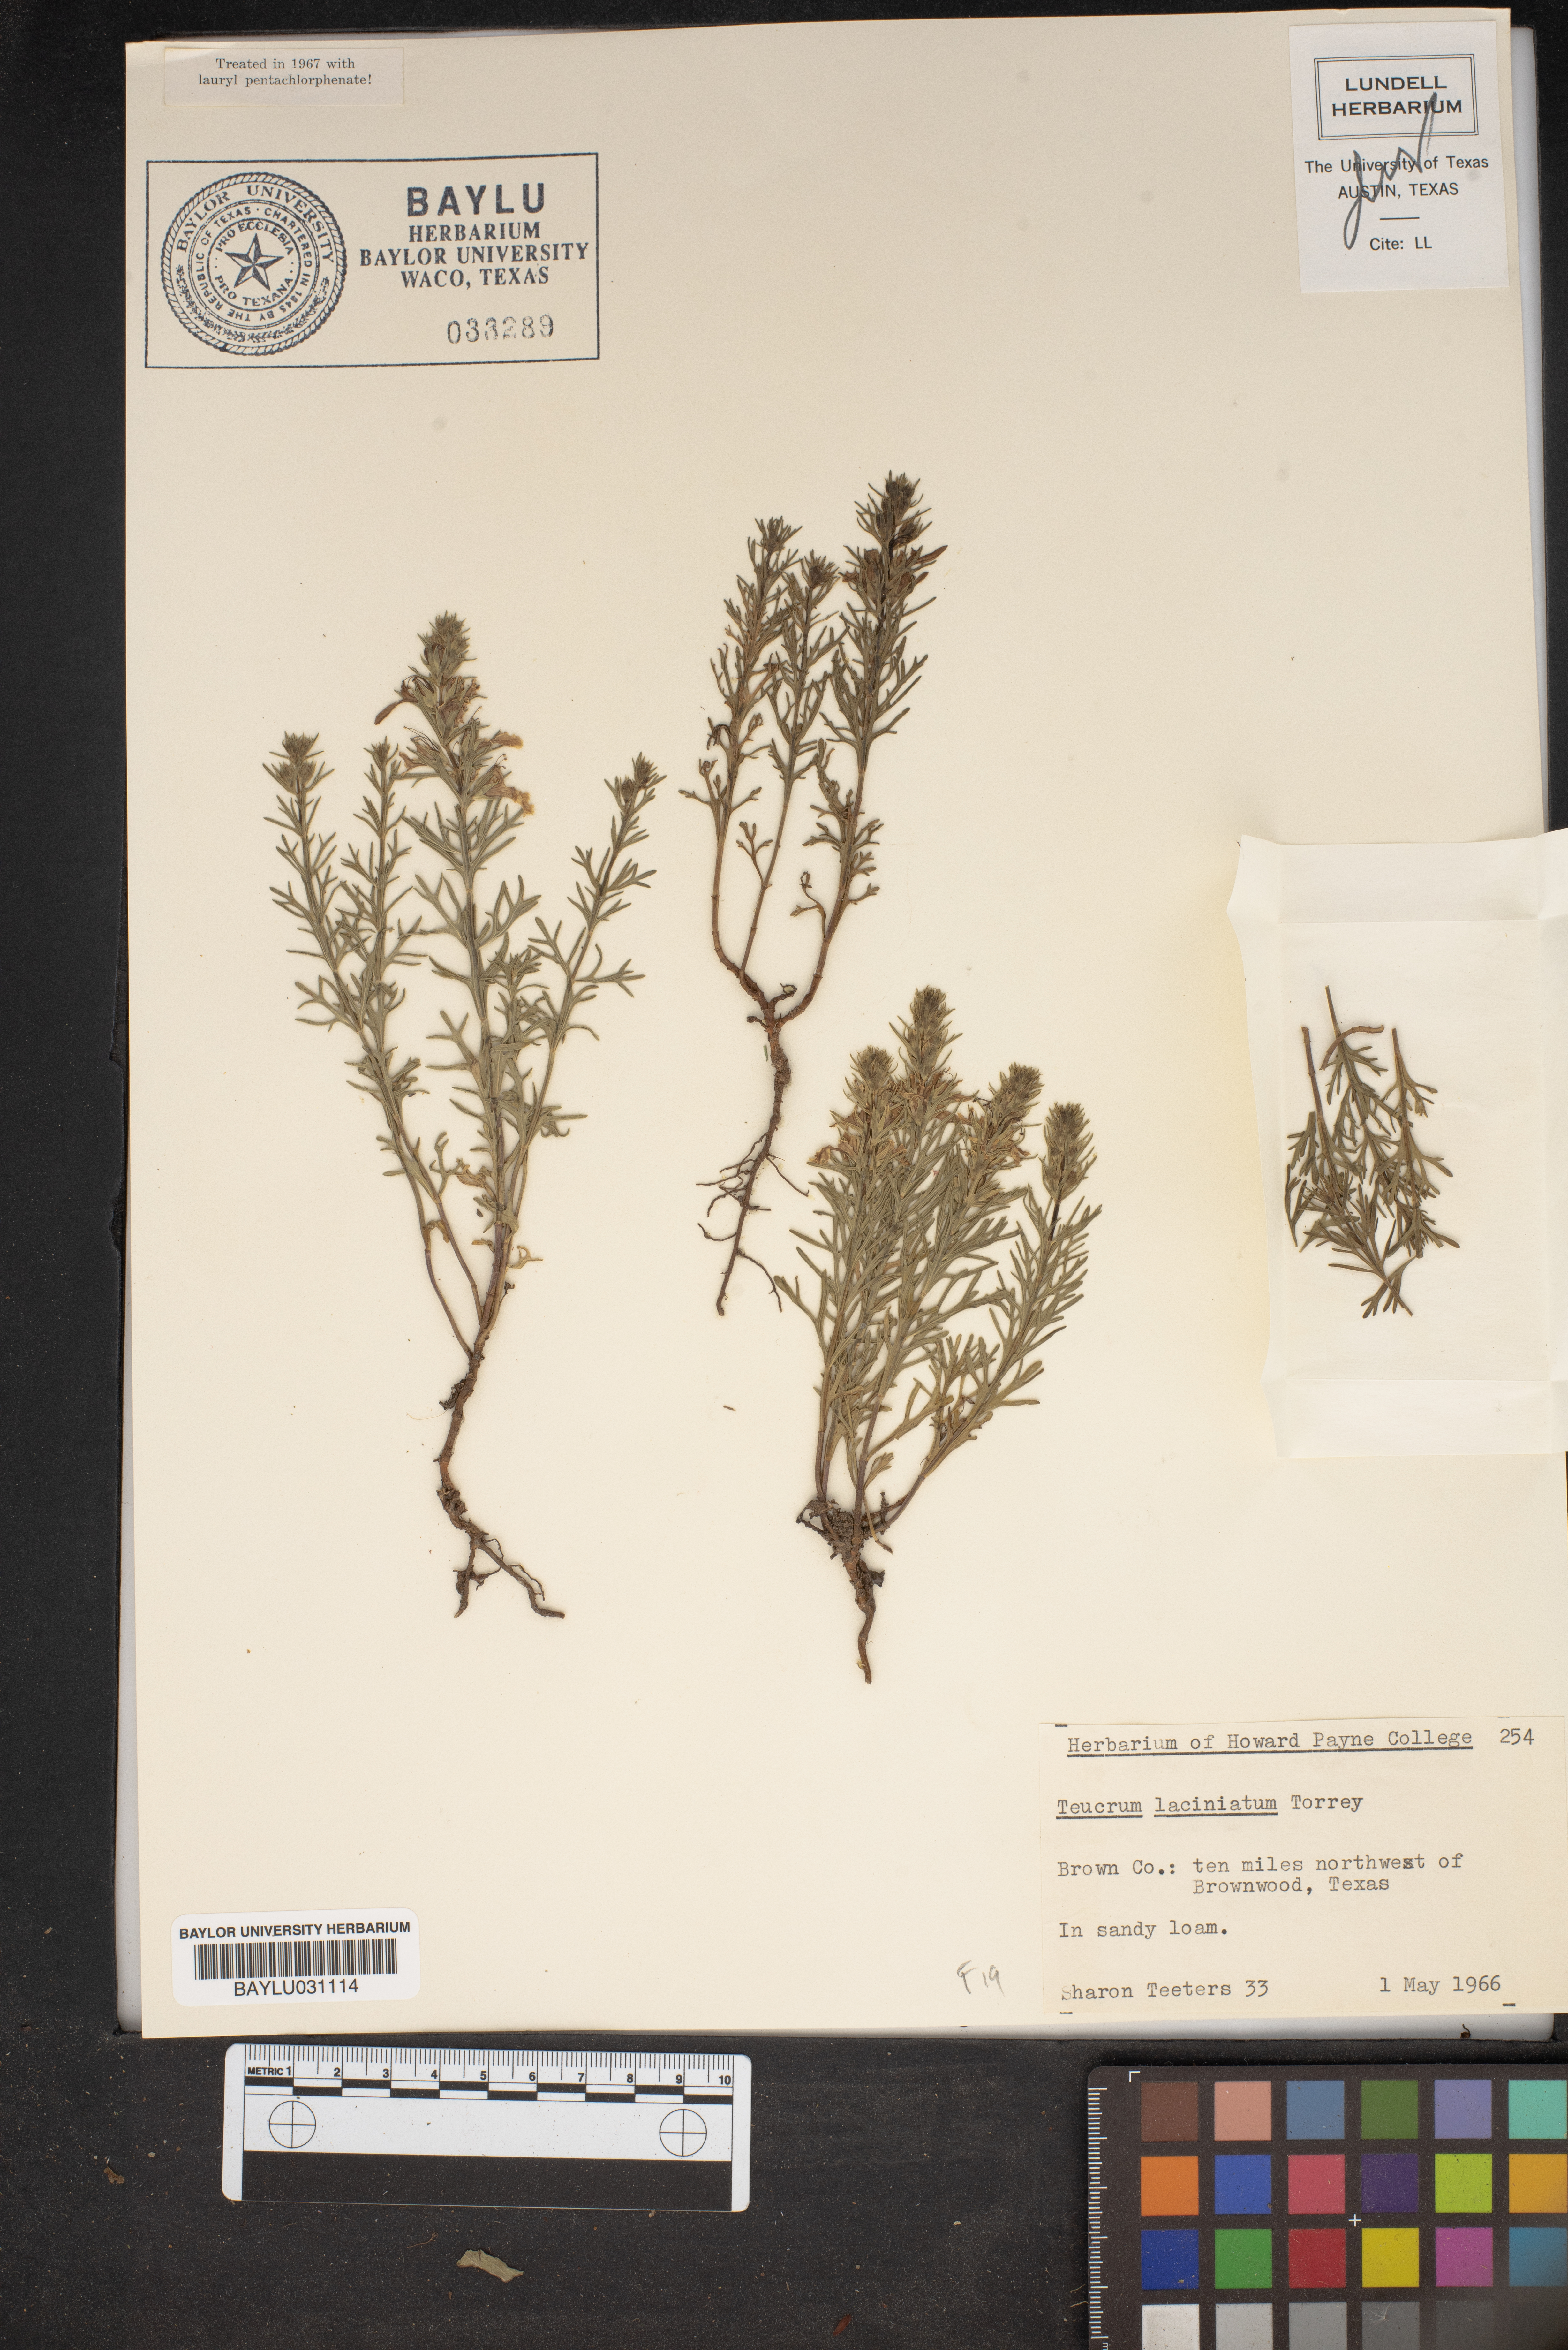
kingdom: Plantae
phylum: Tracheophyta
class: Magnoliopsida
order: Lamiales
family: Lamiaceae
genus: Teucrium
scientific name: Teucrium laciniatum
